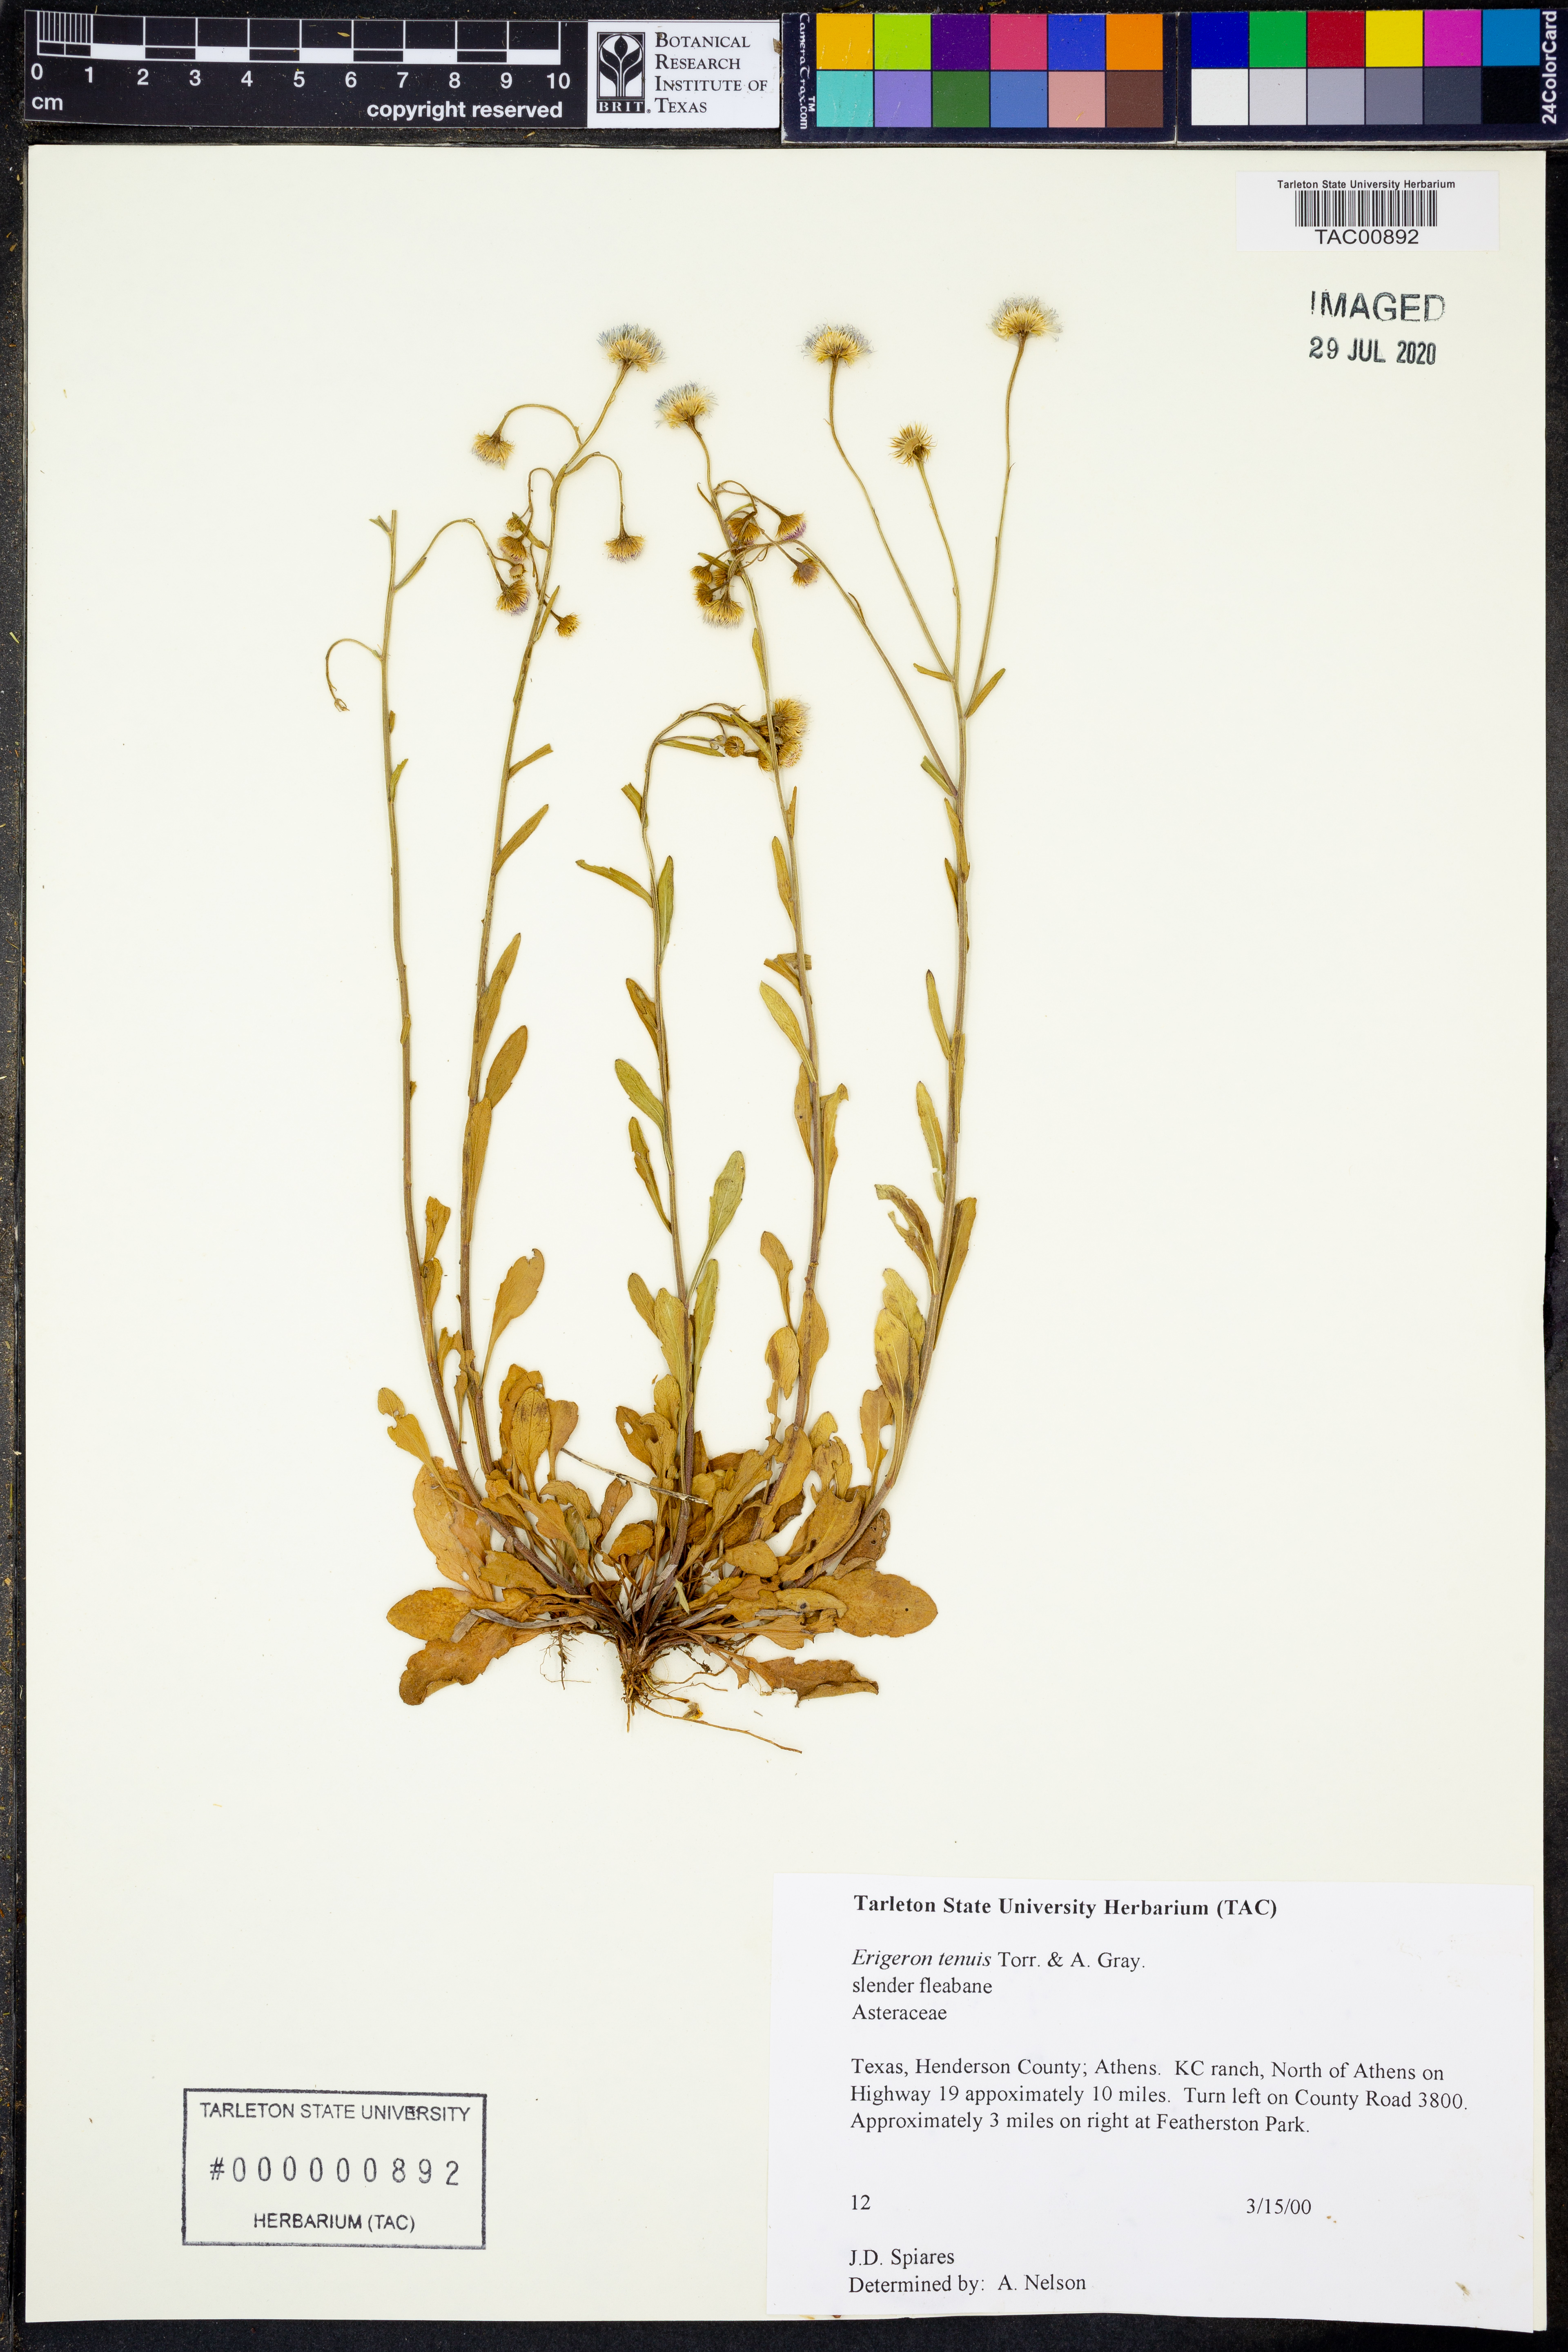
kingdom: Plantae
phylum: Tracheophyta
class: Magnoliopsida
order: Asterales
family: Asteraceae
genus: Erigeron
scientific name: Erigeron tenuis
